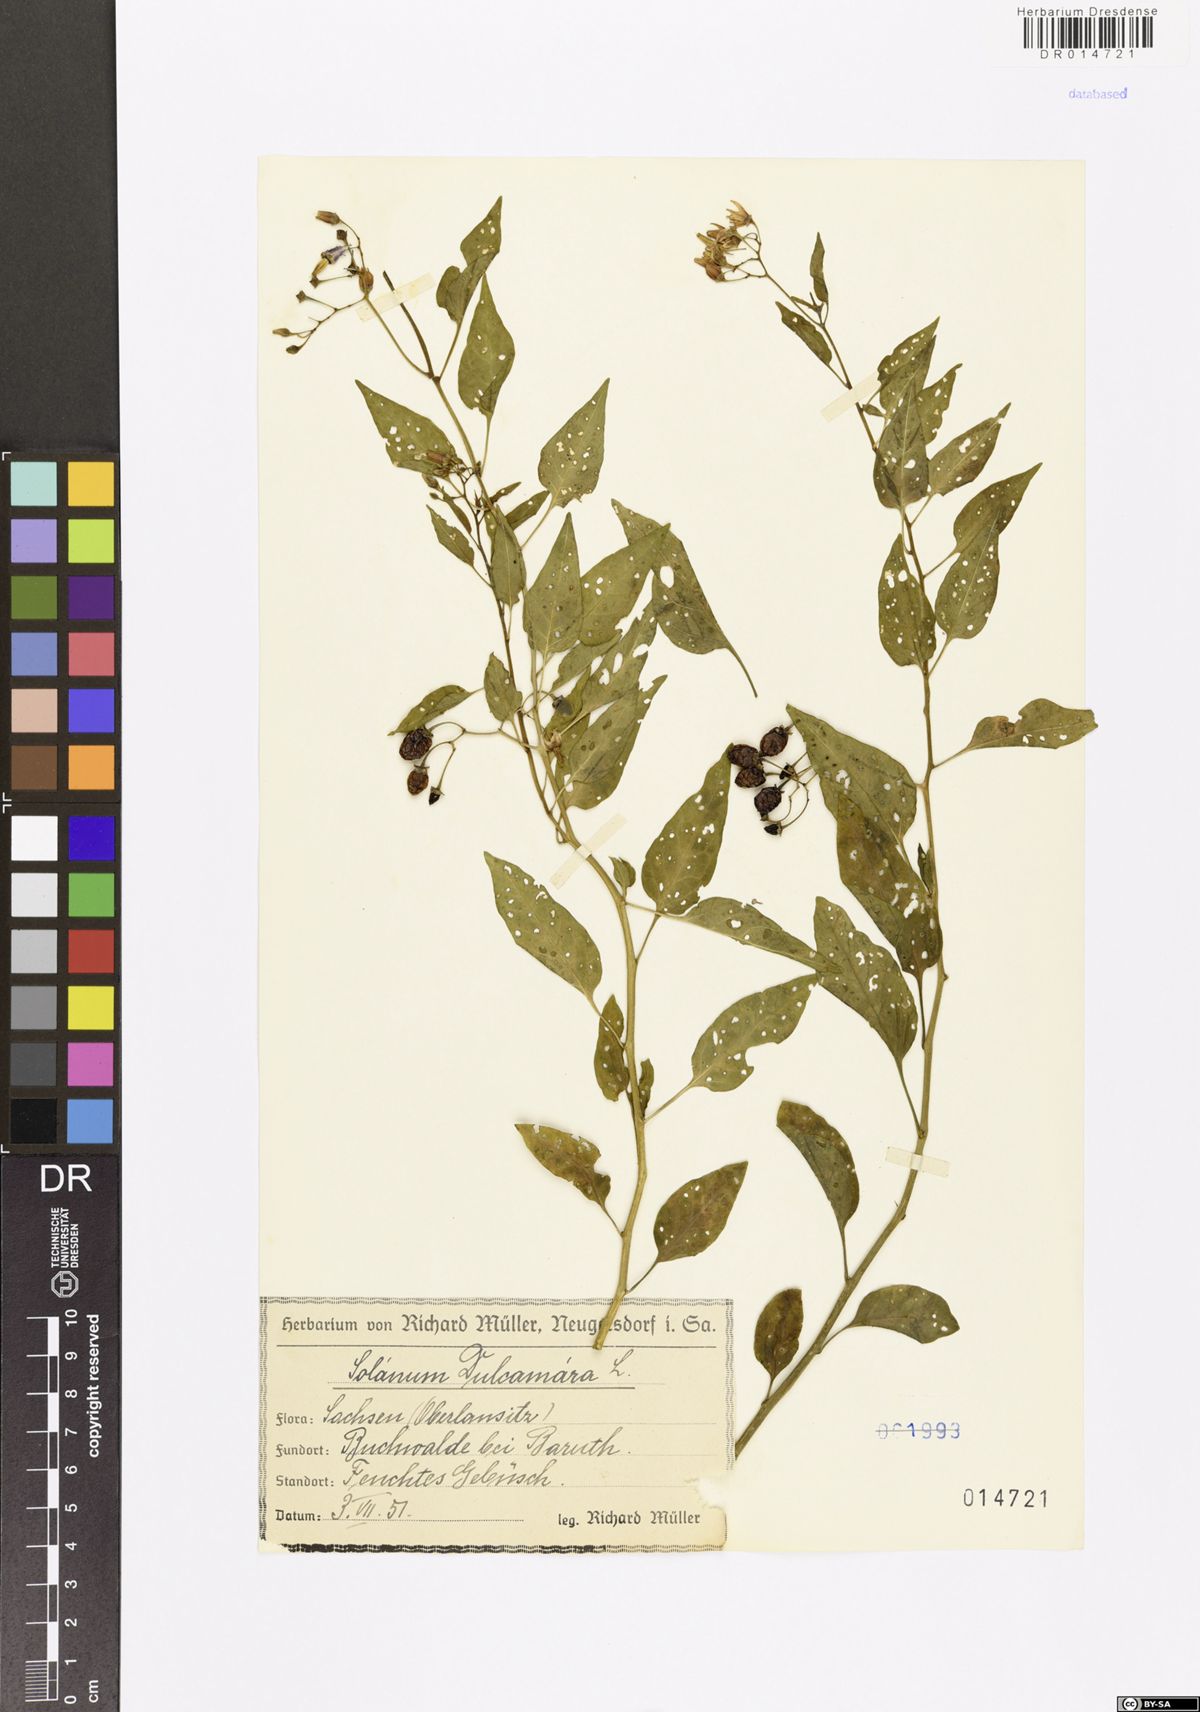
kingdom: Plantae
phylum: Tracheophyta
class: Magnoliopsida
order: Solanales
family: Solanaceae
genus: Solanum
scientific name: Solanum dulcamara
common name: Climbing nightshade
